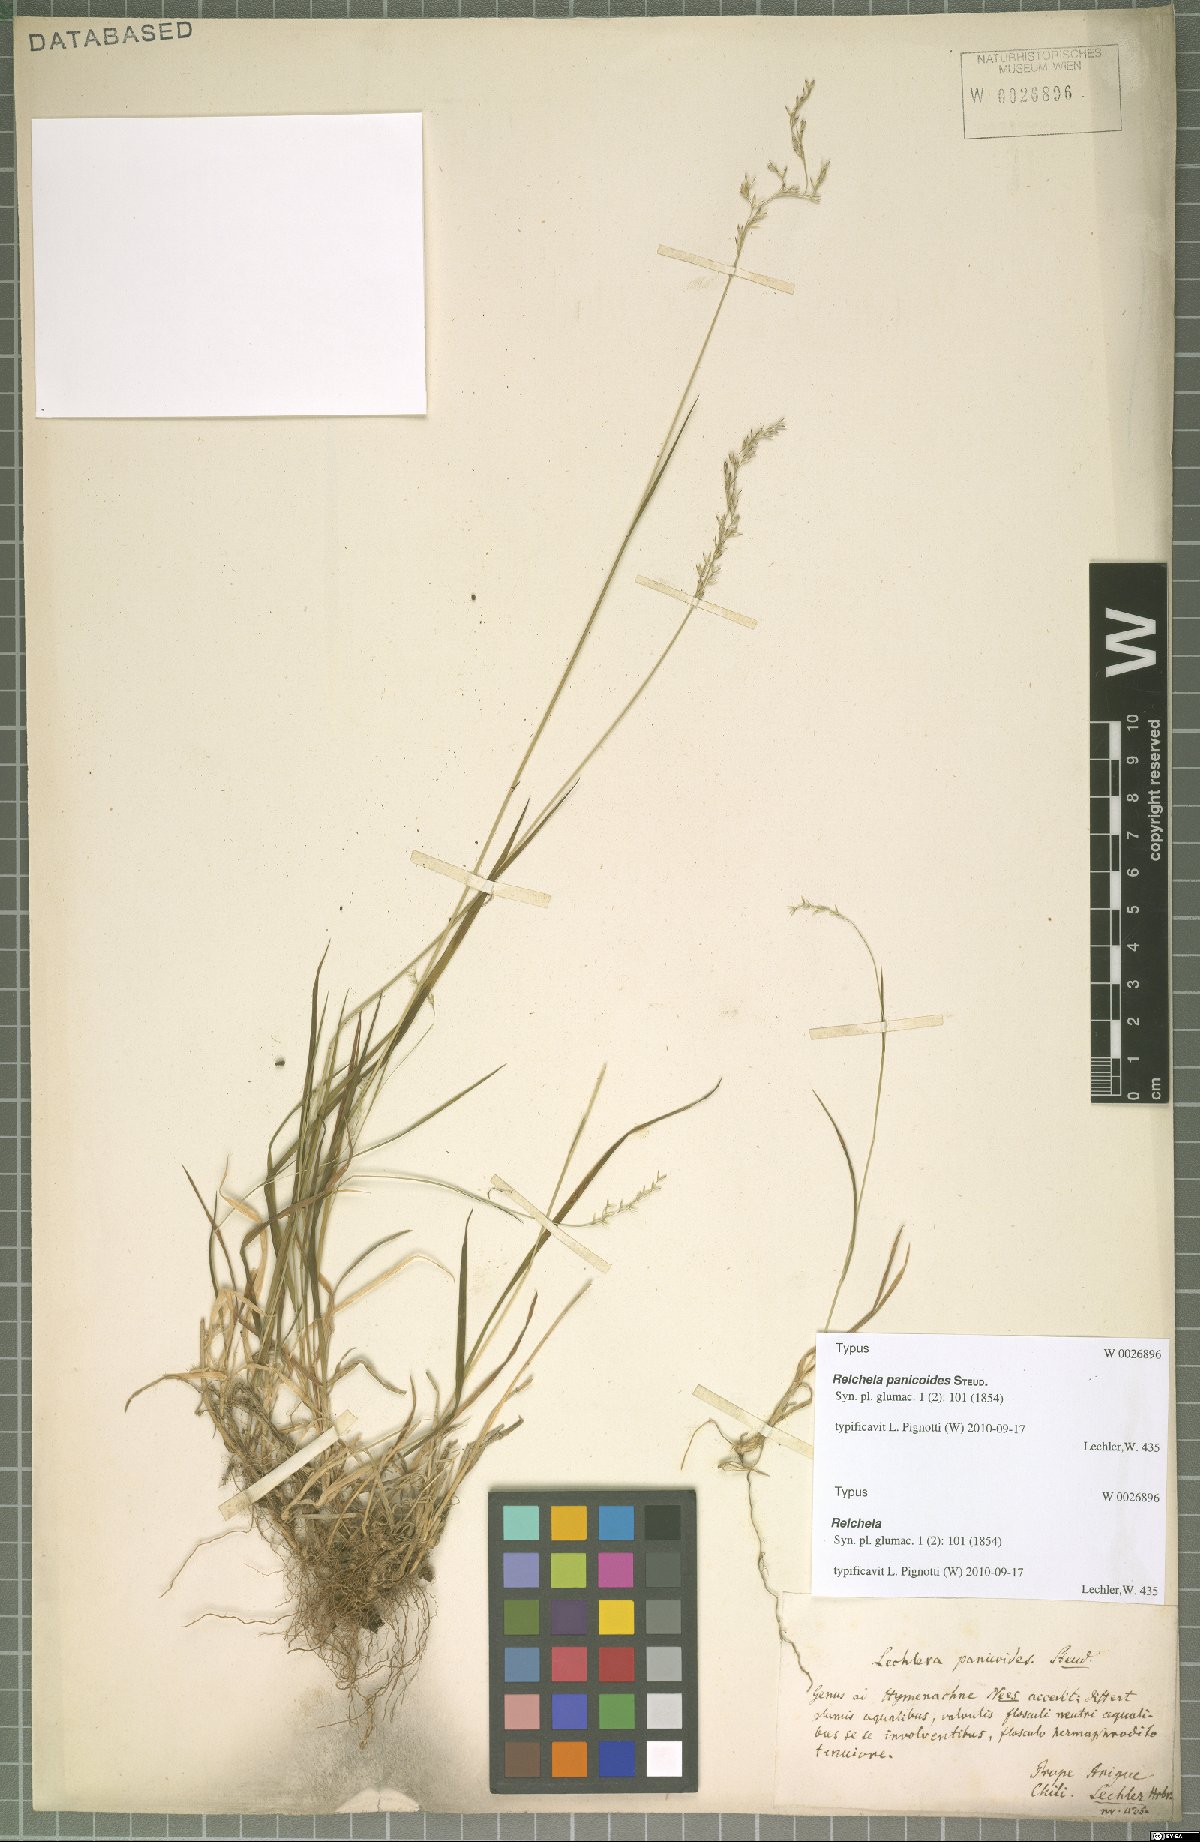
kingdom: Plantae
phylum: Tracheophyta
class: Liliopsida
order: Poales
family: Poaceae
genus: Relchela
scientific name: Relchela panicoides
